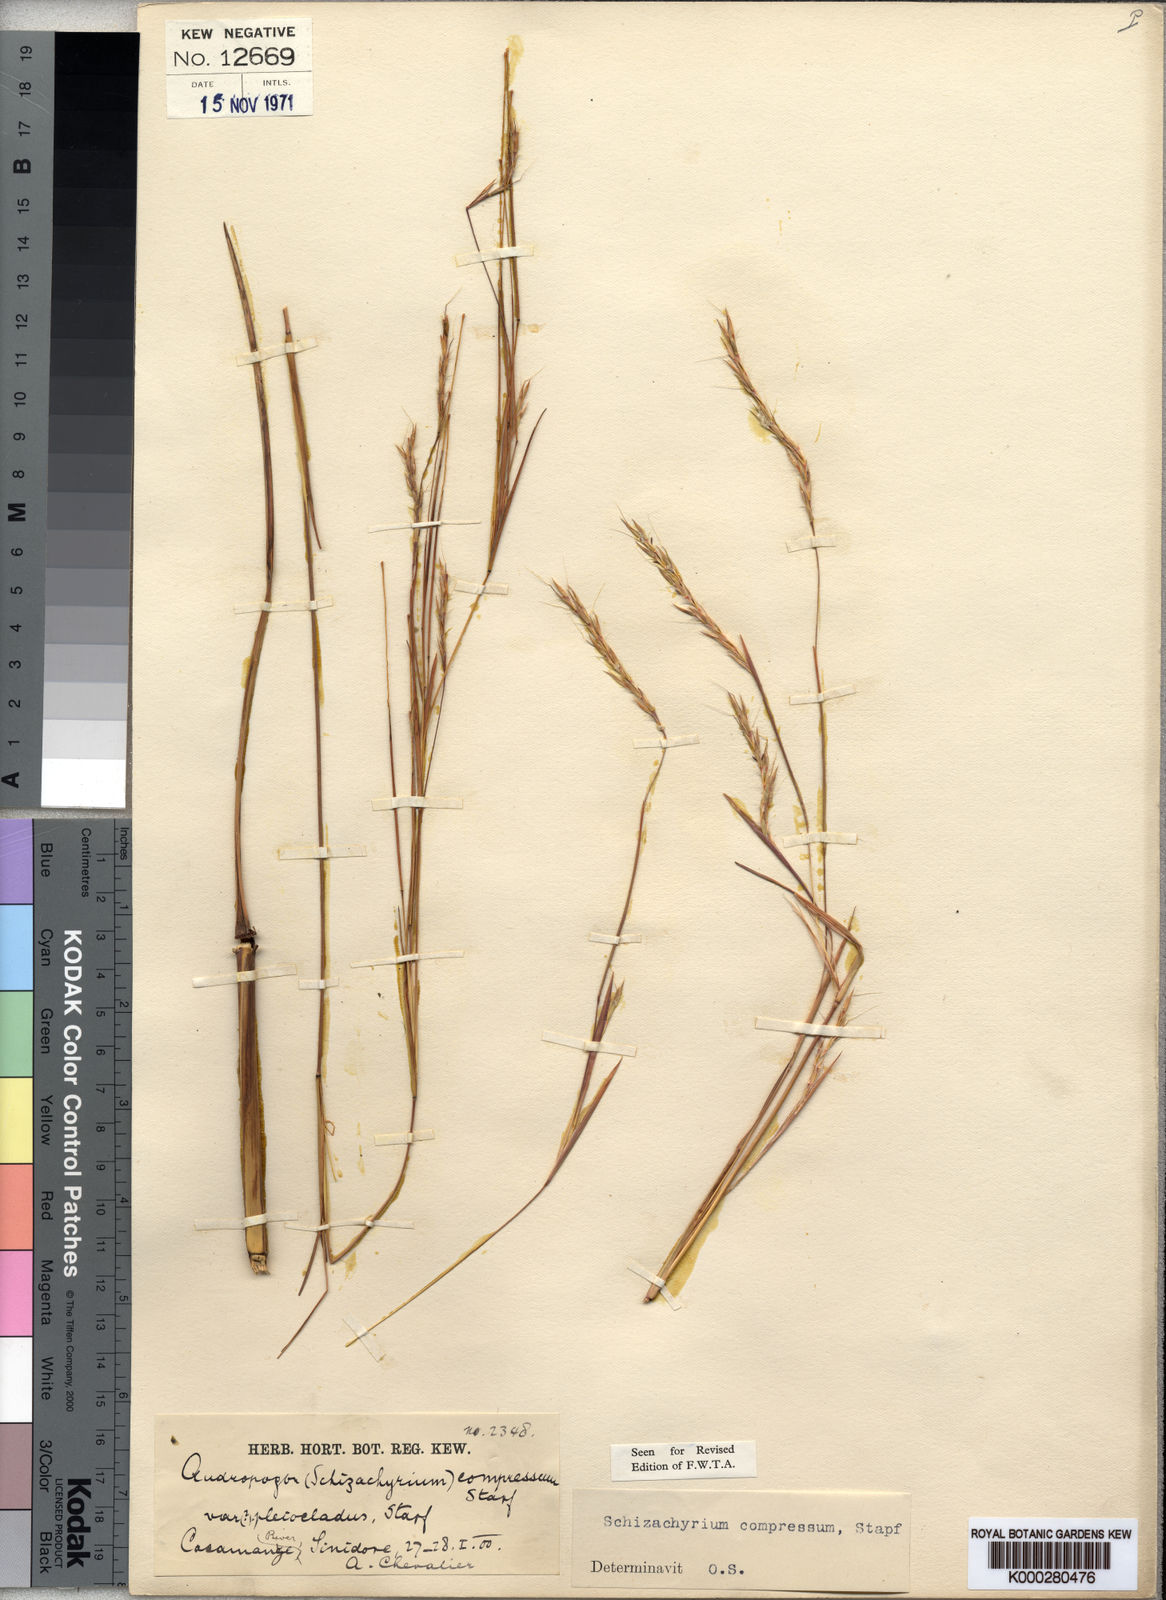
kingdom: Plantae
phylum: Tracheophyta
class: Liliopsida
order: Poales
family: Poaceae
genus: Andropogon
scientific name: Andropogon rupestris
